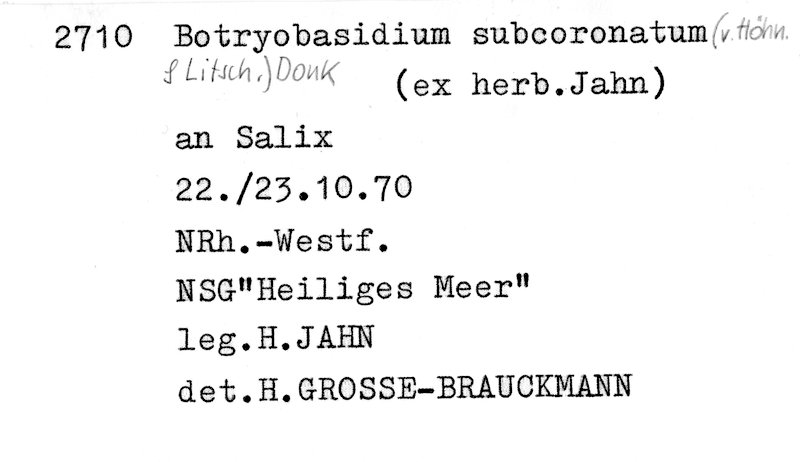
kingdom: Plantae
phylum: Tracheophyta
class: Magnoliopsida
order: Malpighiales
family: Salicaceae
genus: Salix
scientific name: Salix
